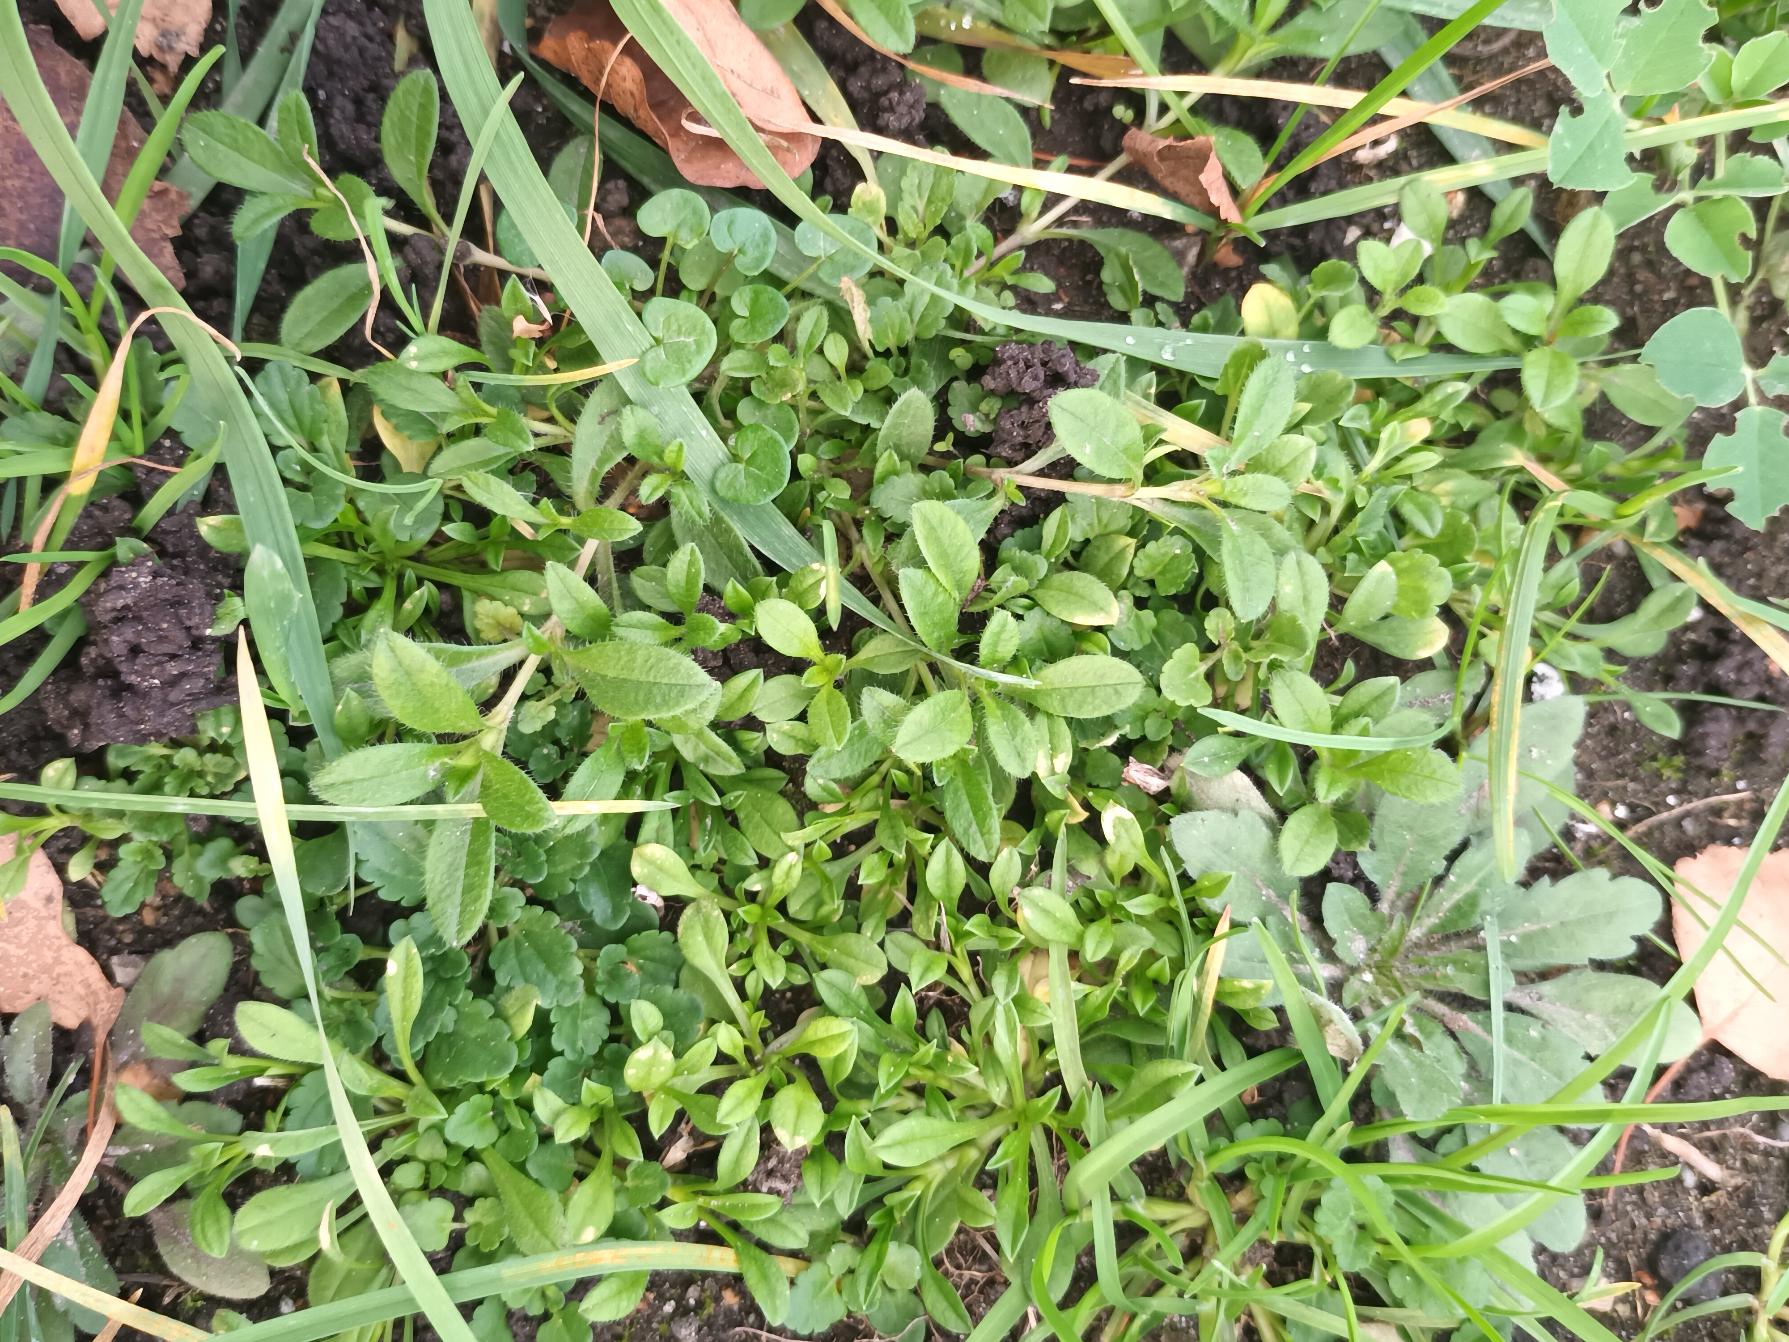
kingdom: Plantae
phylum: Tracheophyta
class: Magnoliopsida
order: Caryophyllales
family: Caryophyllaceae
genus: Cerastium
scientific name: Cerastium fontanum
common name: Almindelig hønsetarm
